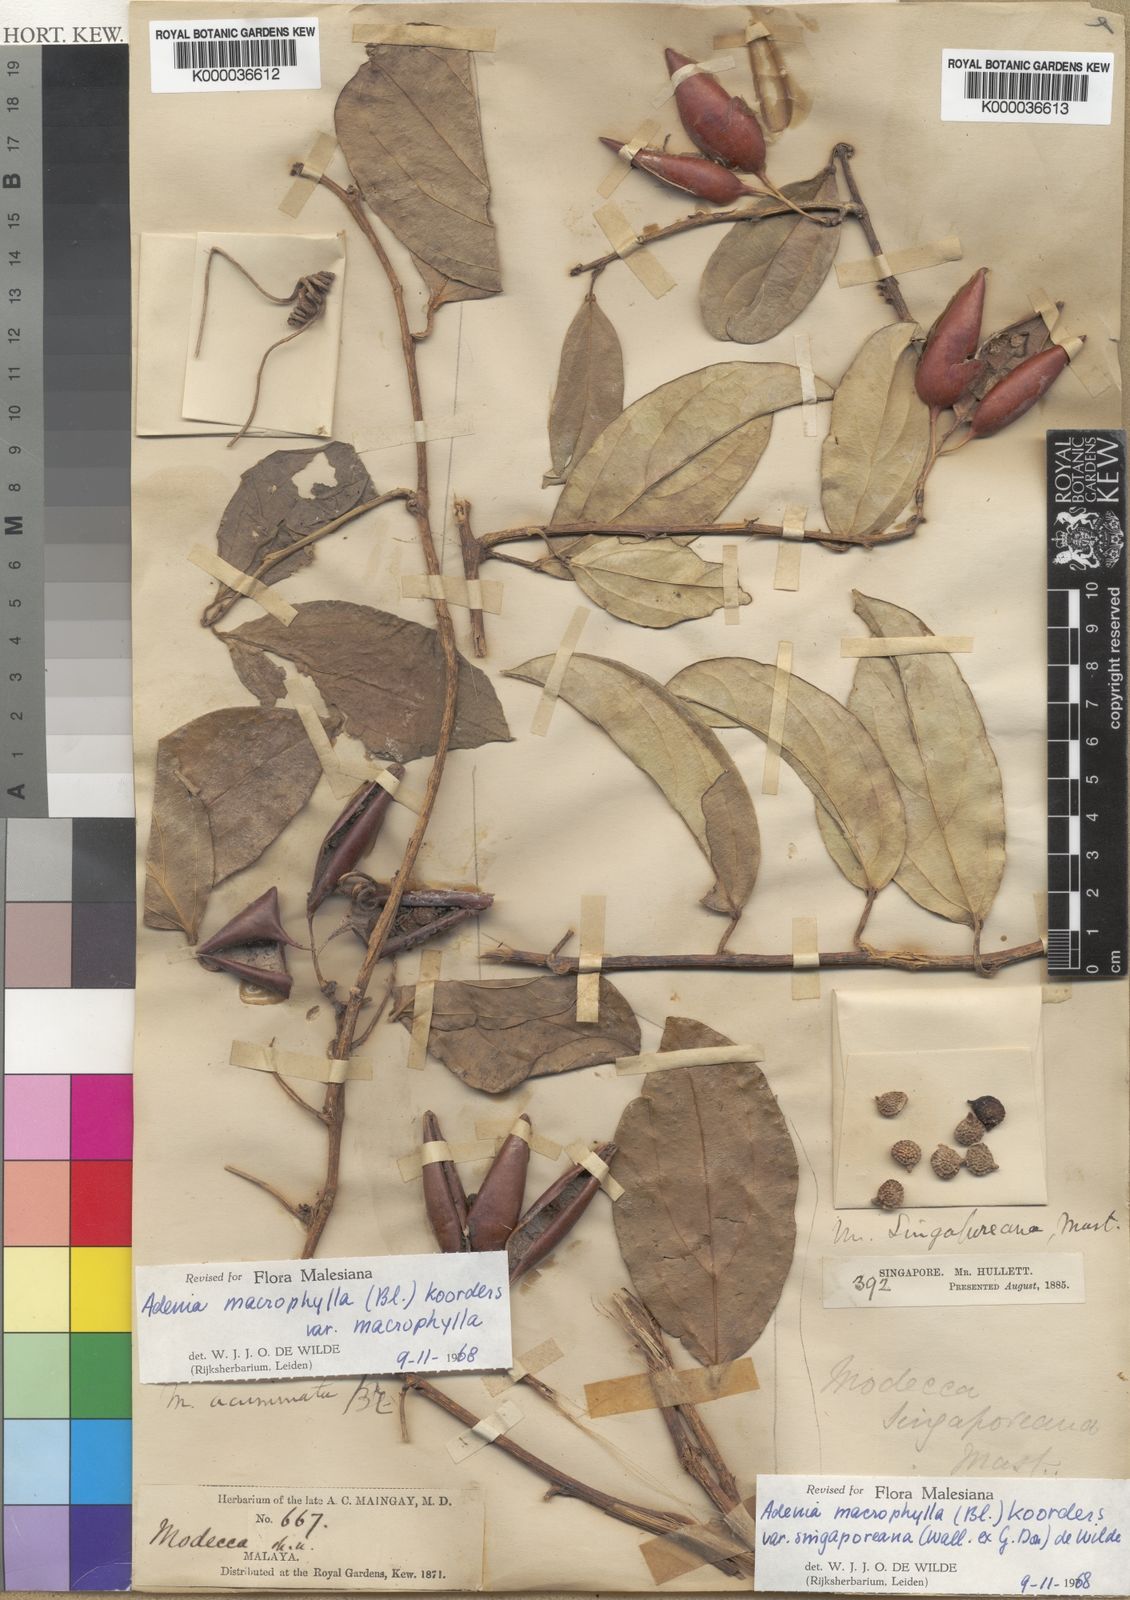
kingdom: Plantae
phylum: Tracheophyta
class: Magnoliopsida
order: Malpighiales
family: Passifloraceae
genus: Adenia
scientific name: Adenia macrophylla
